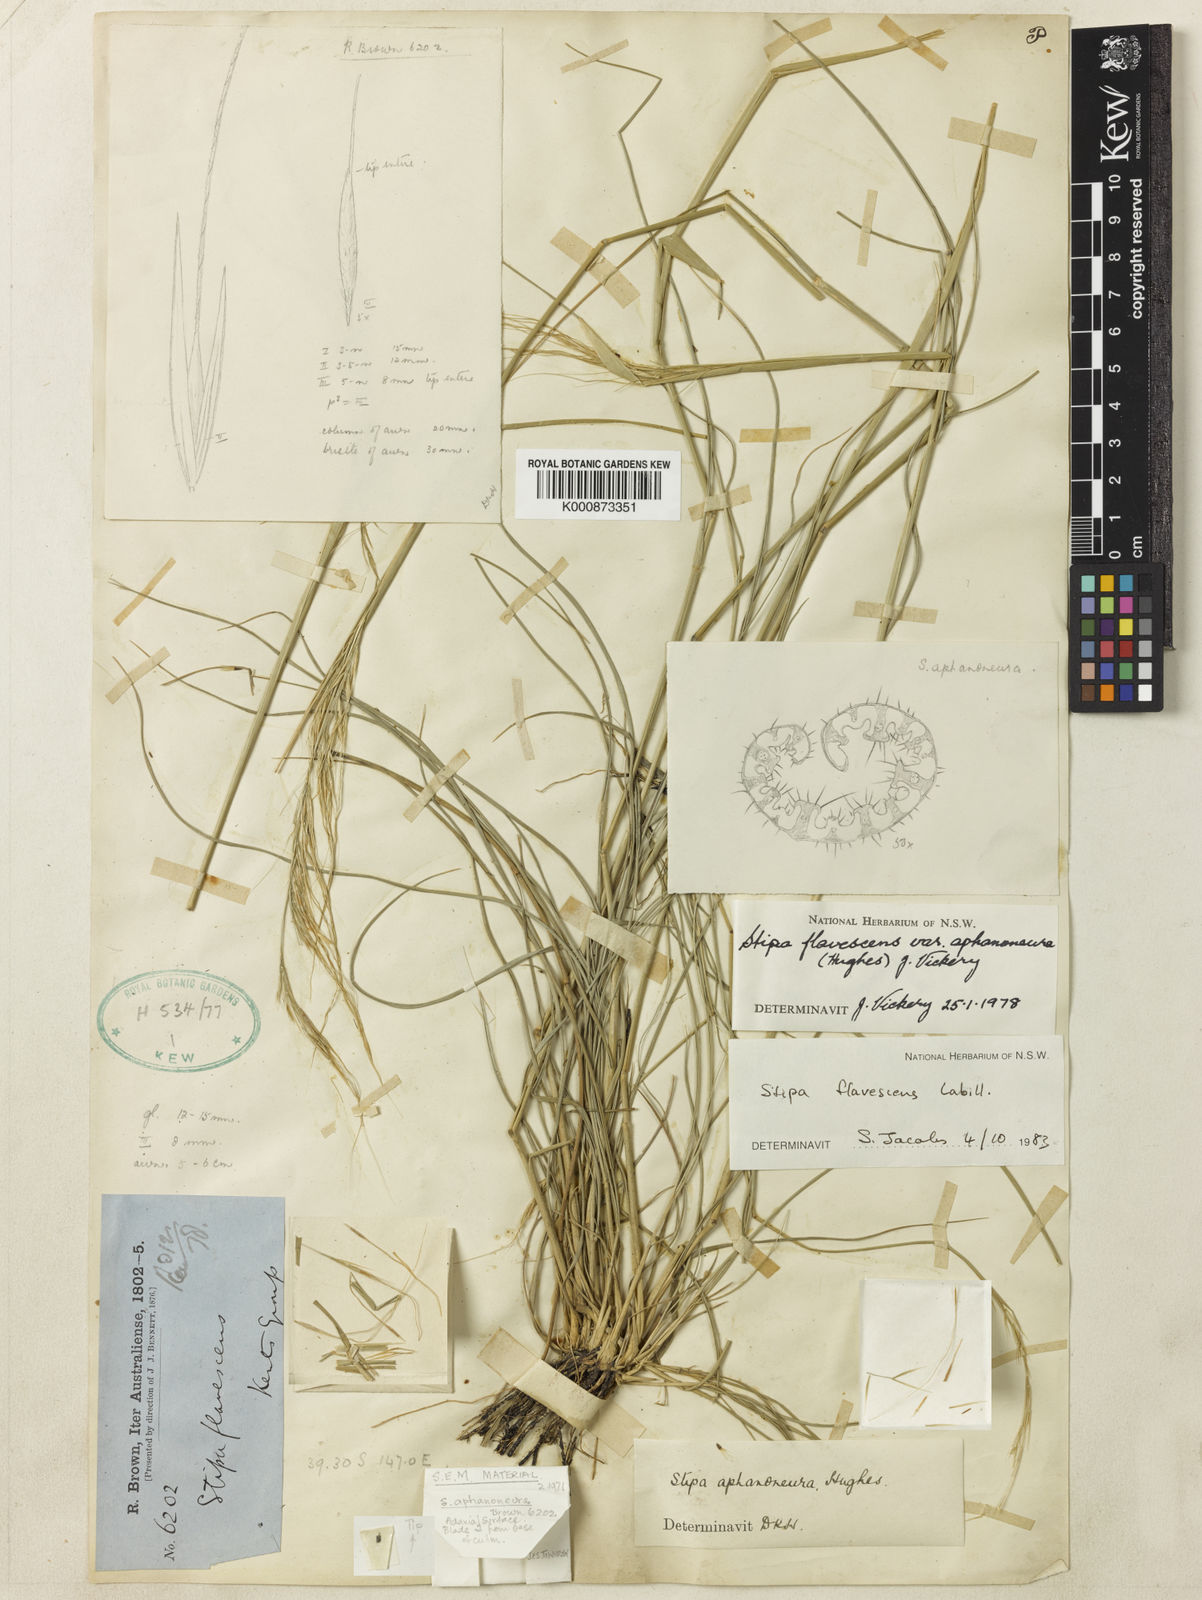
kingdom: Plantae
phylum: Tracheophyta
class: Liliopsida
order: Poales
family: Poaceae
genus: Austrostipa
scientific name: Austrostipa flavescens
